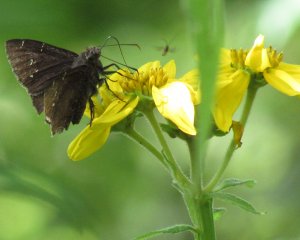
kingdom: Animalia
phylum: Arthropoda
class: Insecta
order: Lepidoptera
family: Hesperiidae
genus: Autochton
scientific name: Autochton
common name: Northern Cloudywing
